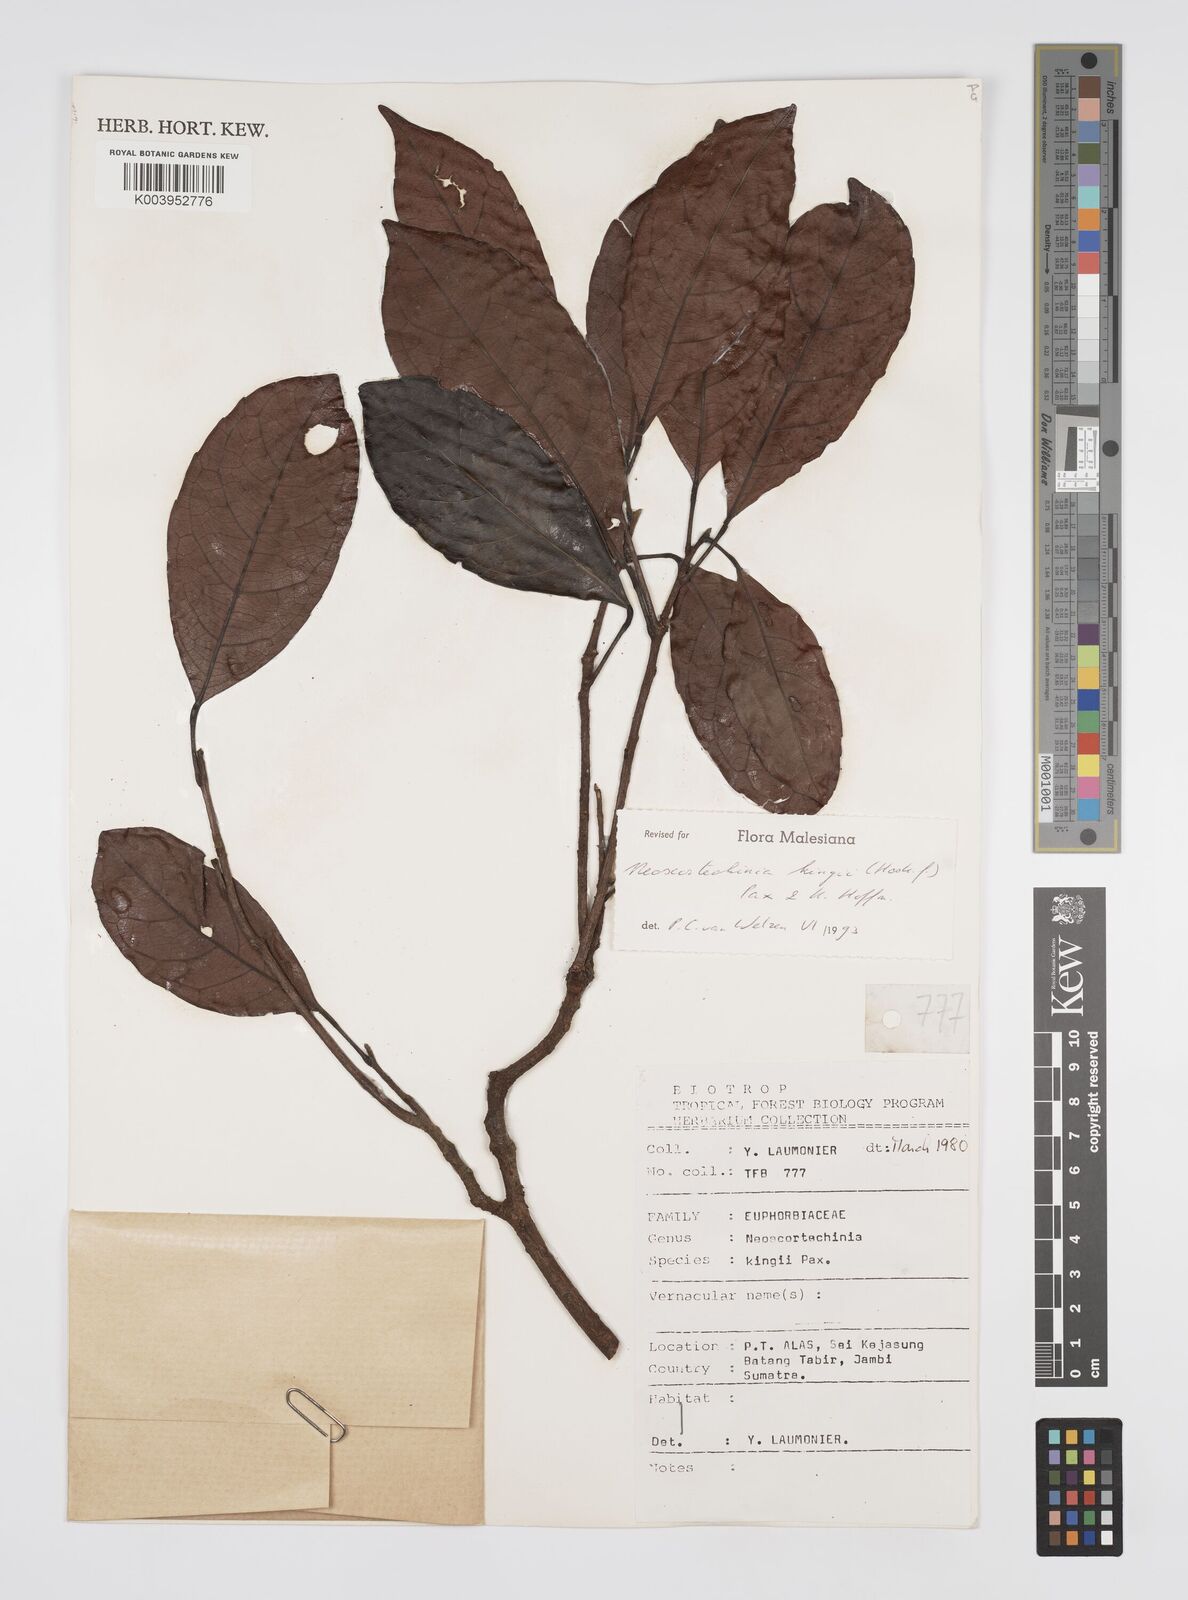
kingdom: Plantae
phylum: Tracheophyta
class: Magnoliopsida
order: Malpighiales
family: Euphorbiaceae
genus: Neoscortechinia
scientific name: Neoscortechinia kingii
